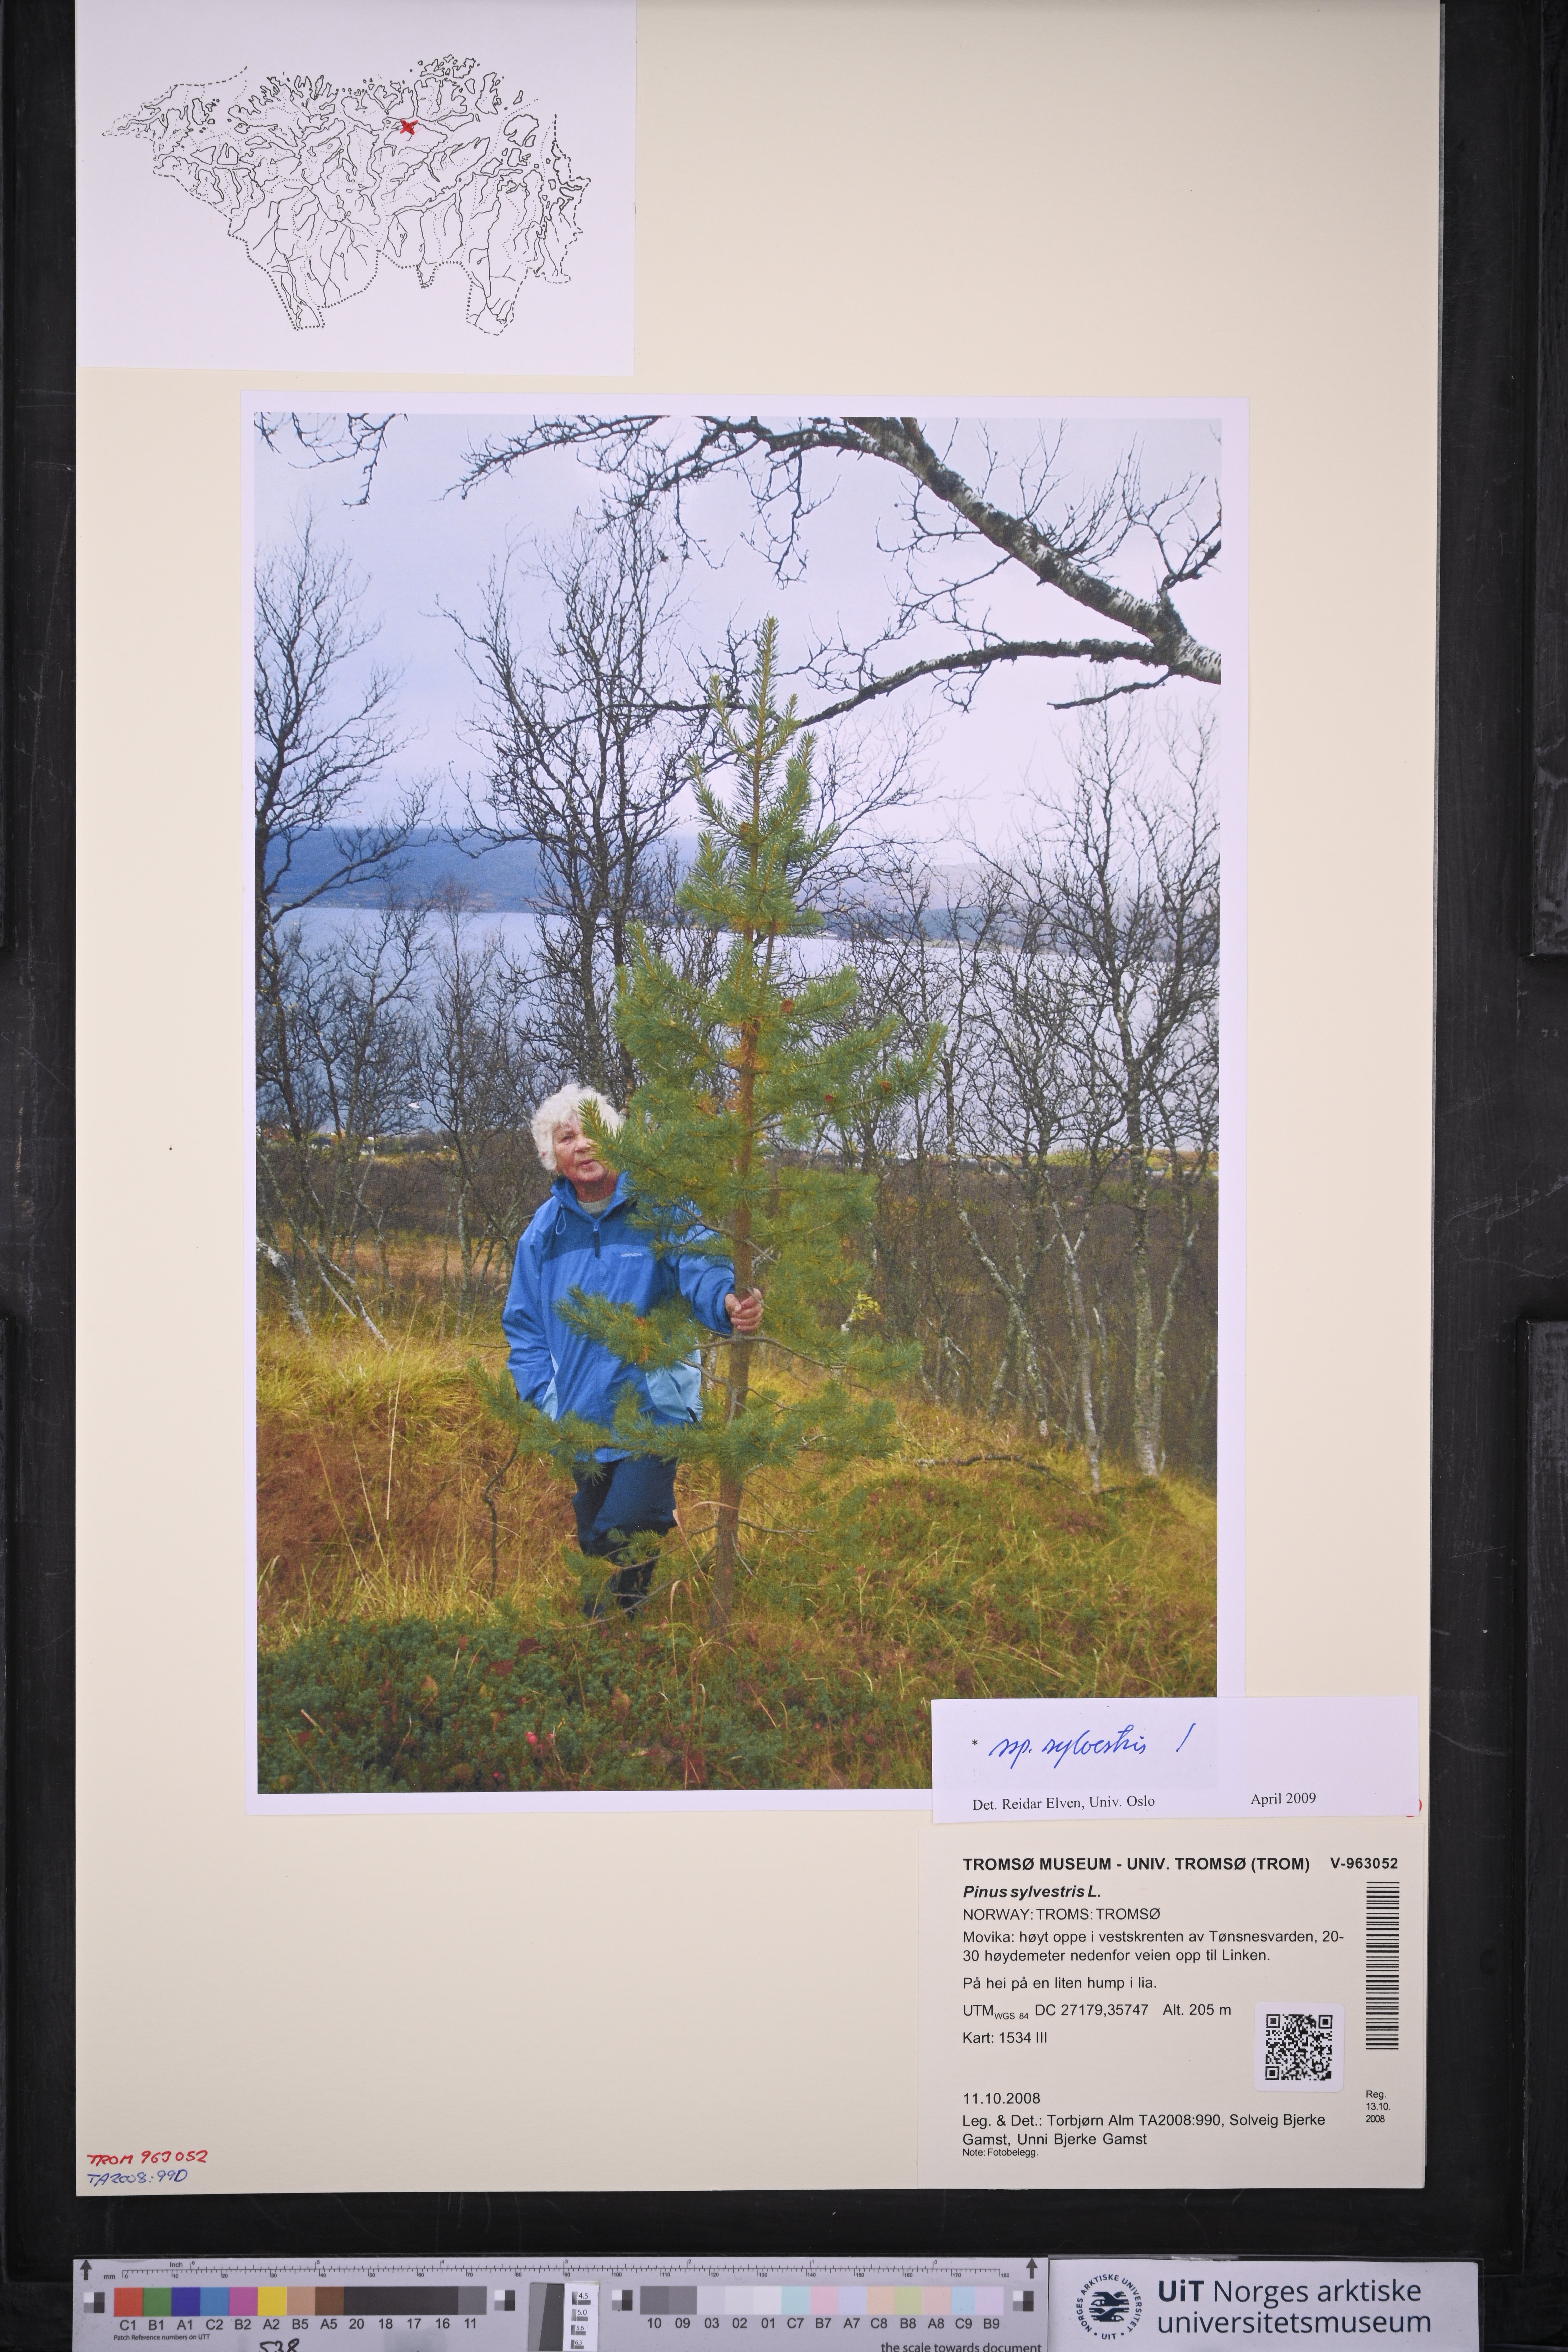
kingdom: Plantae
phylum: Tracheophyta
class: Pinopsida
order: Pinales
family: Pinaceae
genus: Pinus
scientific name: Pinus sylvestris
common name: Scots pine
